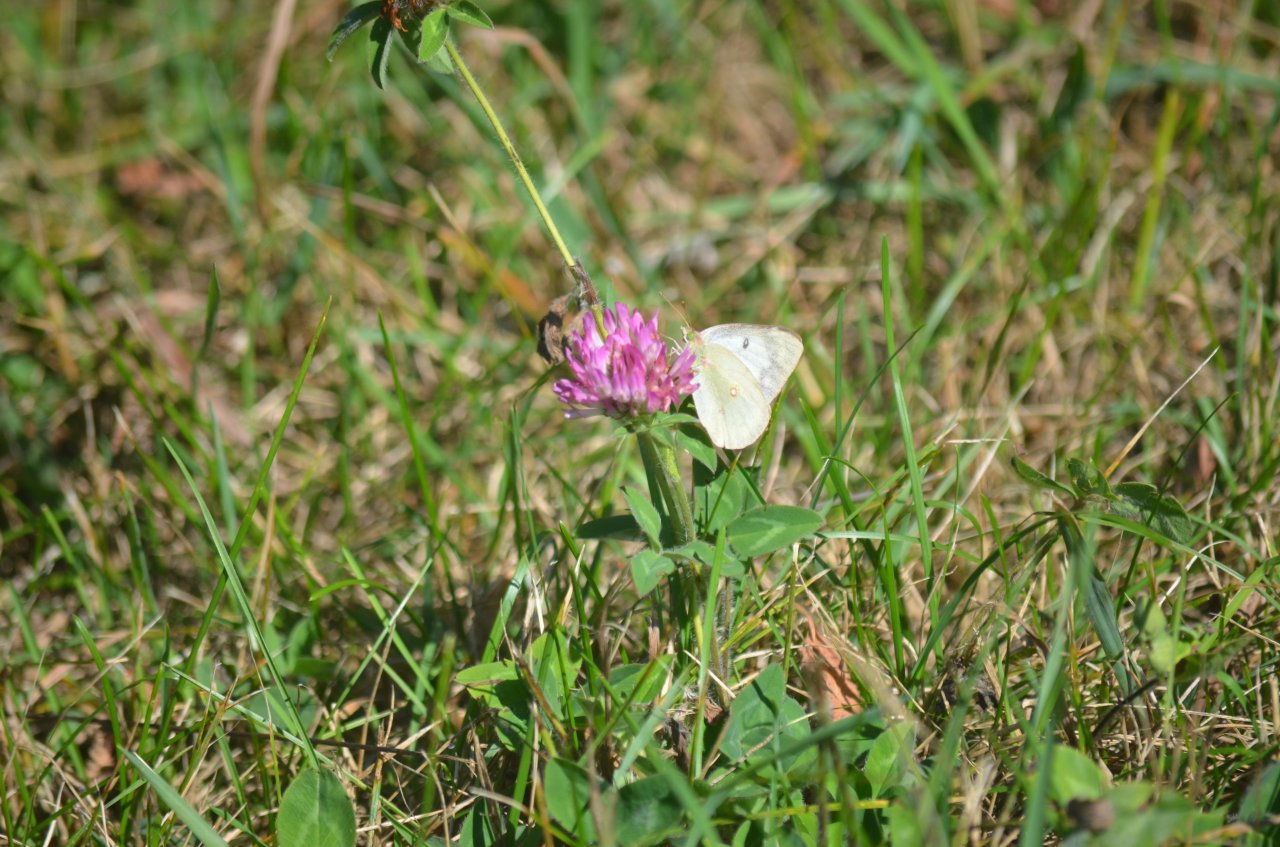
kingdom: Animalia
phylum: Arthropoda
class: Insecta
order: Lepidoptera
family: Pieridae
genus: Colias
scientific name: Colias philodice
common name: Clouded Sulphur
